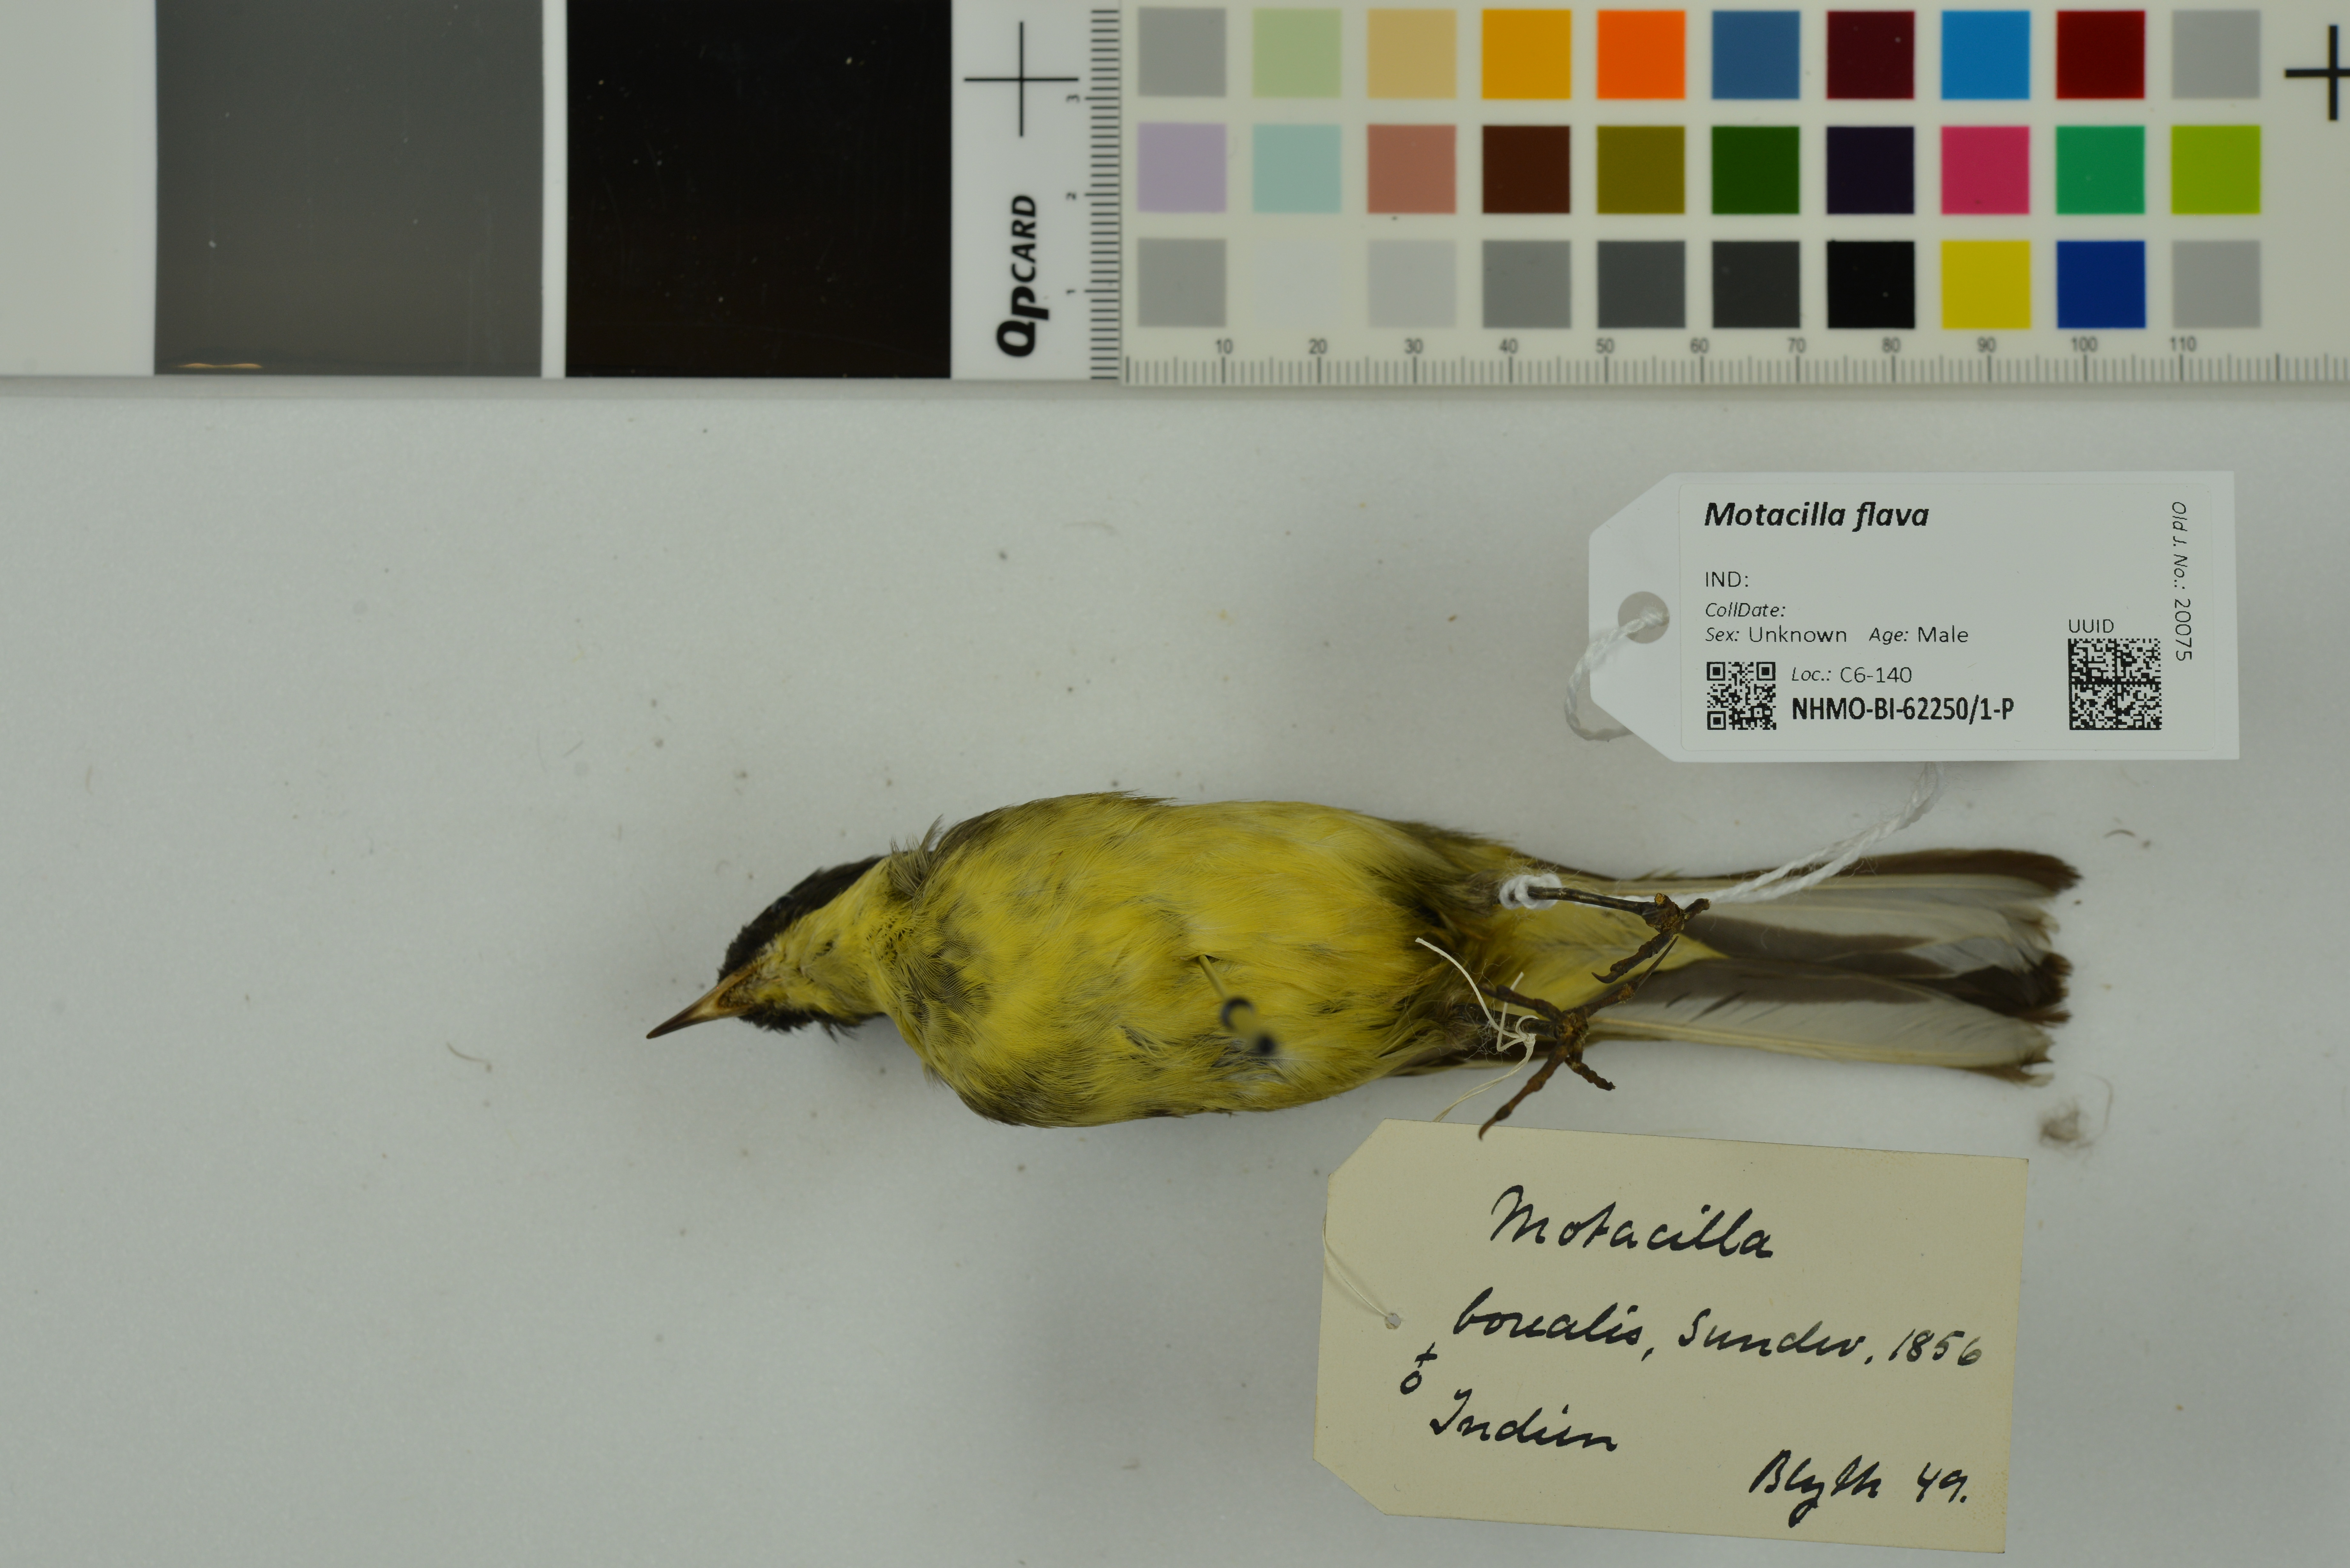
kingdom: Animalia
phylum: Chordata
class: Aves
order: Passeriformes
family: Motacillidae
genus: Motacilla
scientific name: Motacilla flava
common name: Western yellow wagtail
